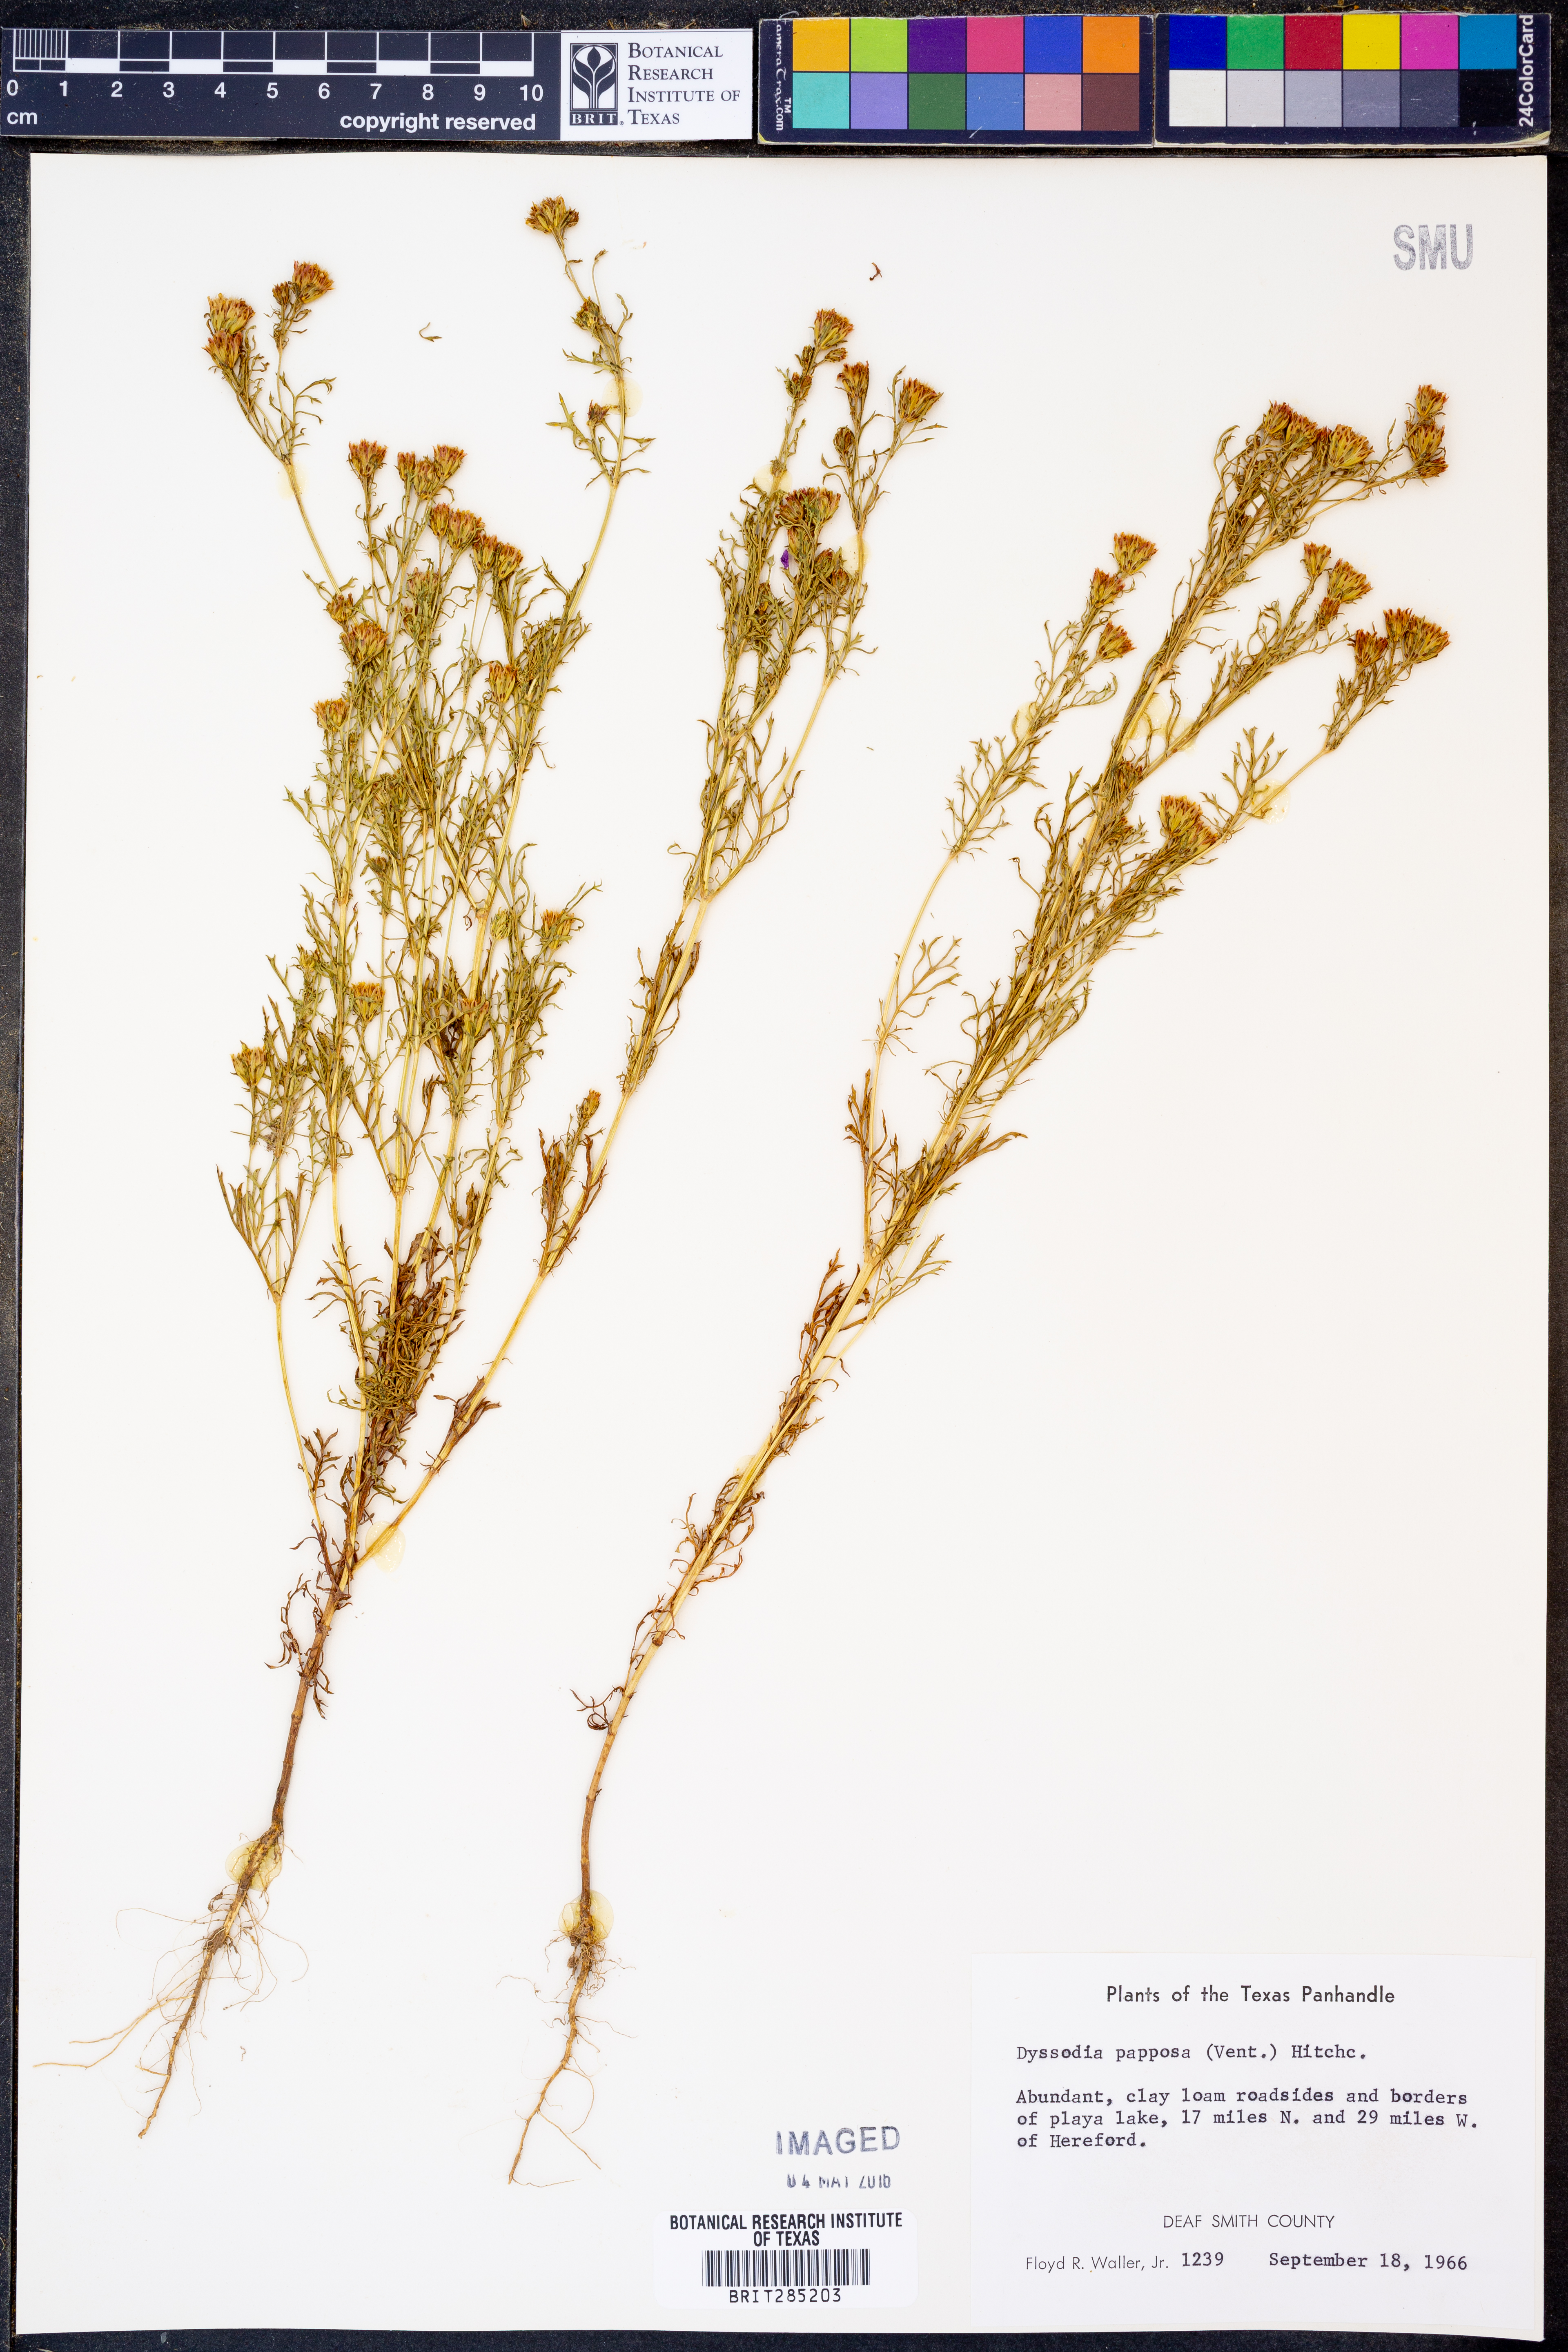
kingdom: Plantae
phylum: Tracheophyta
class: Magnoliopsida
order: Asterales
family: Asteraceae
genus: Dyssodia
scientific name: Dyssodia papposa
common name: Dogweed
